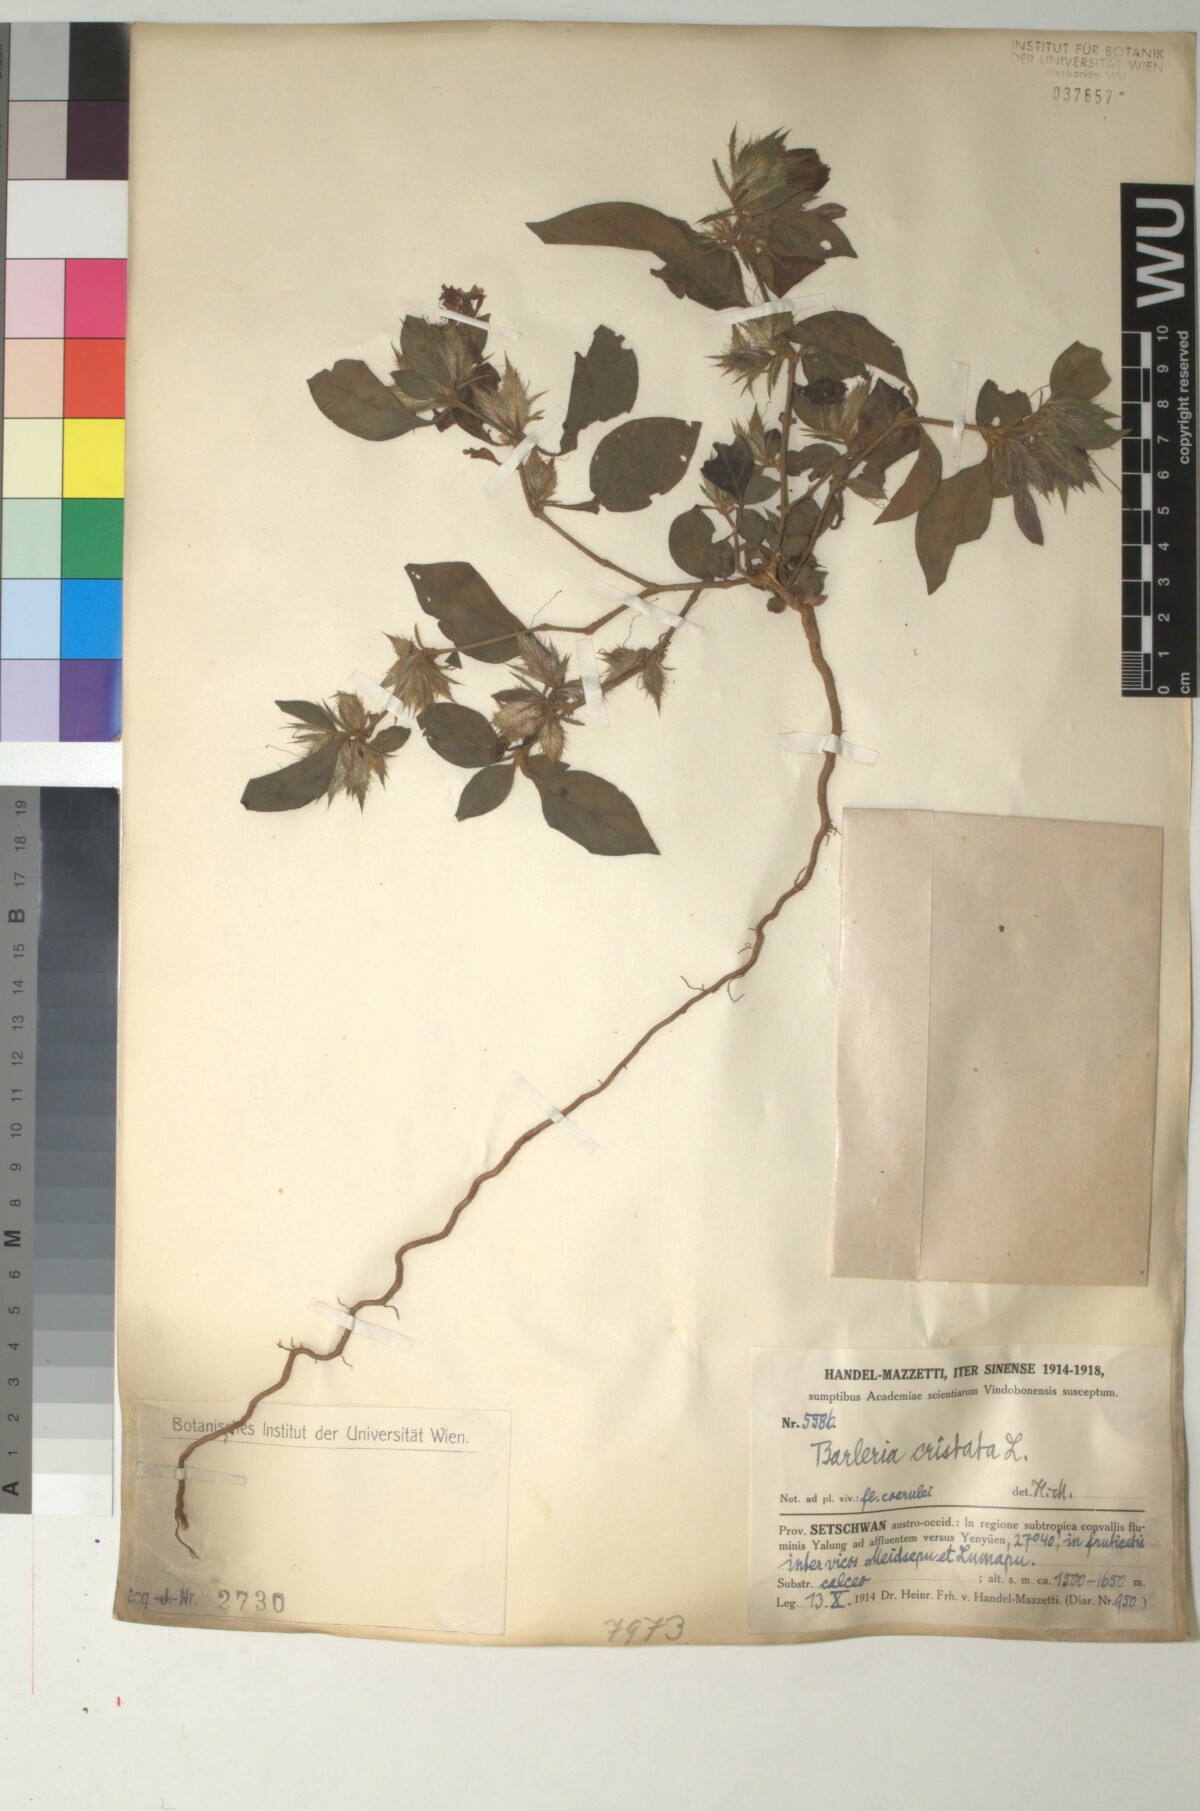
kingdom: Plantae
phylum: Tracheophyta
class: Magnoliopsida
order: Lamiales
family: Acanthaceae
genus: Barleria
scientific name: Barleria cristata
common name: Crested philippine violet
